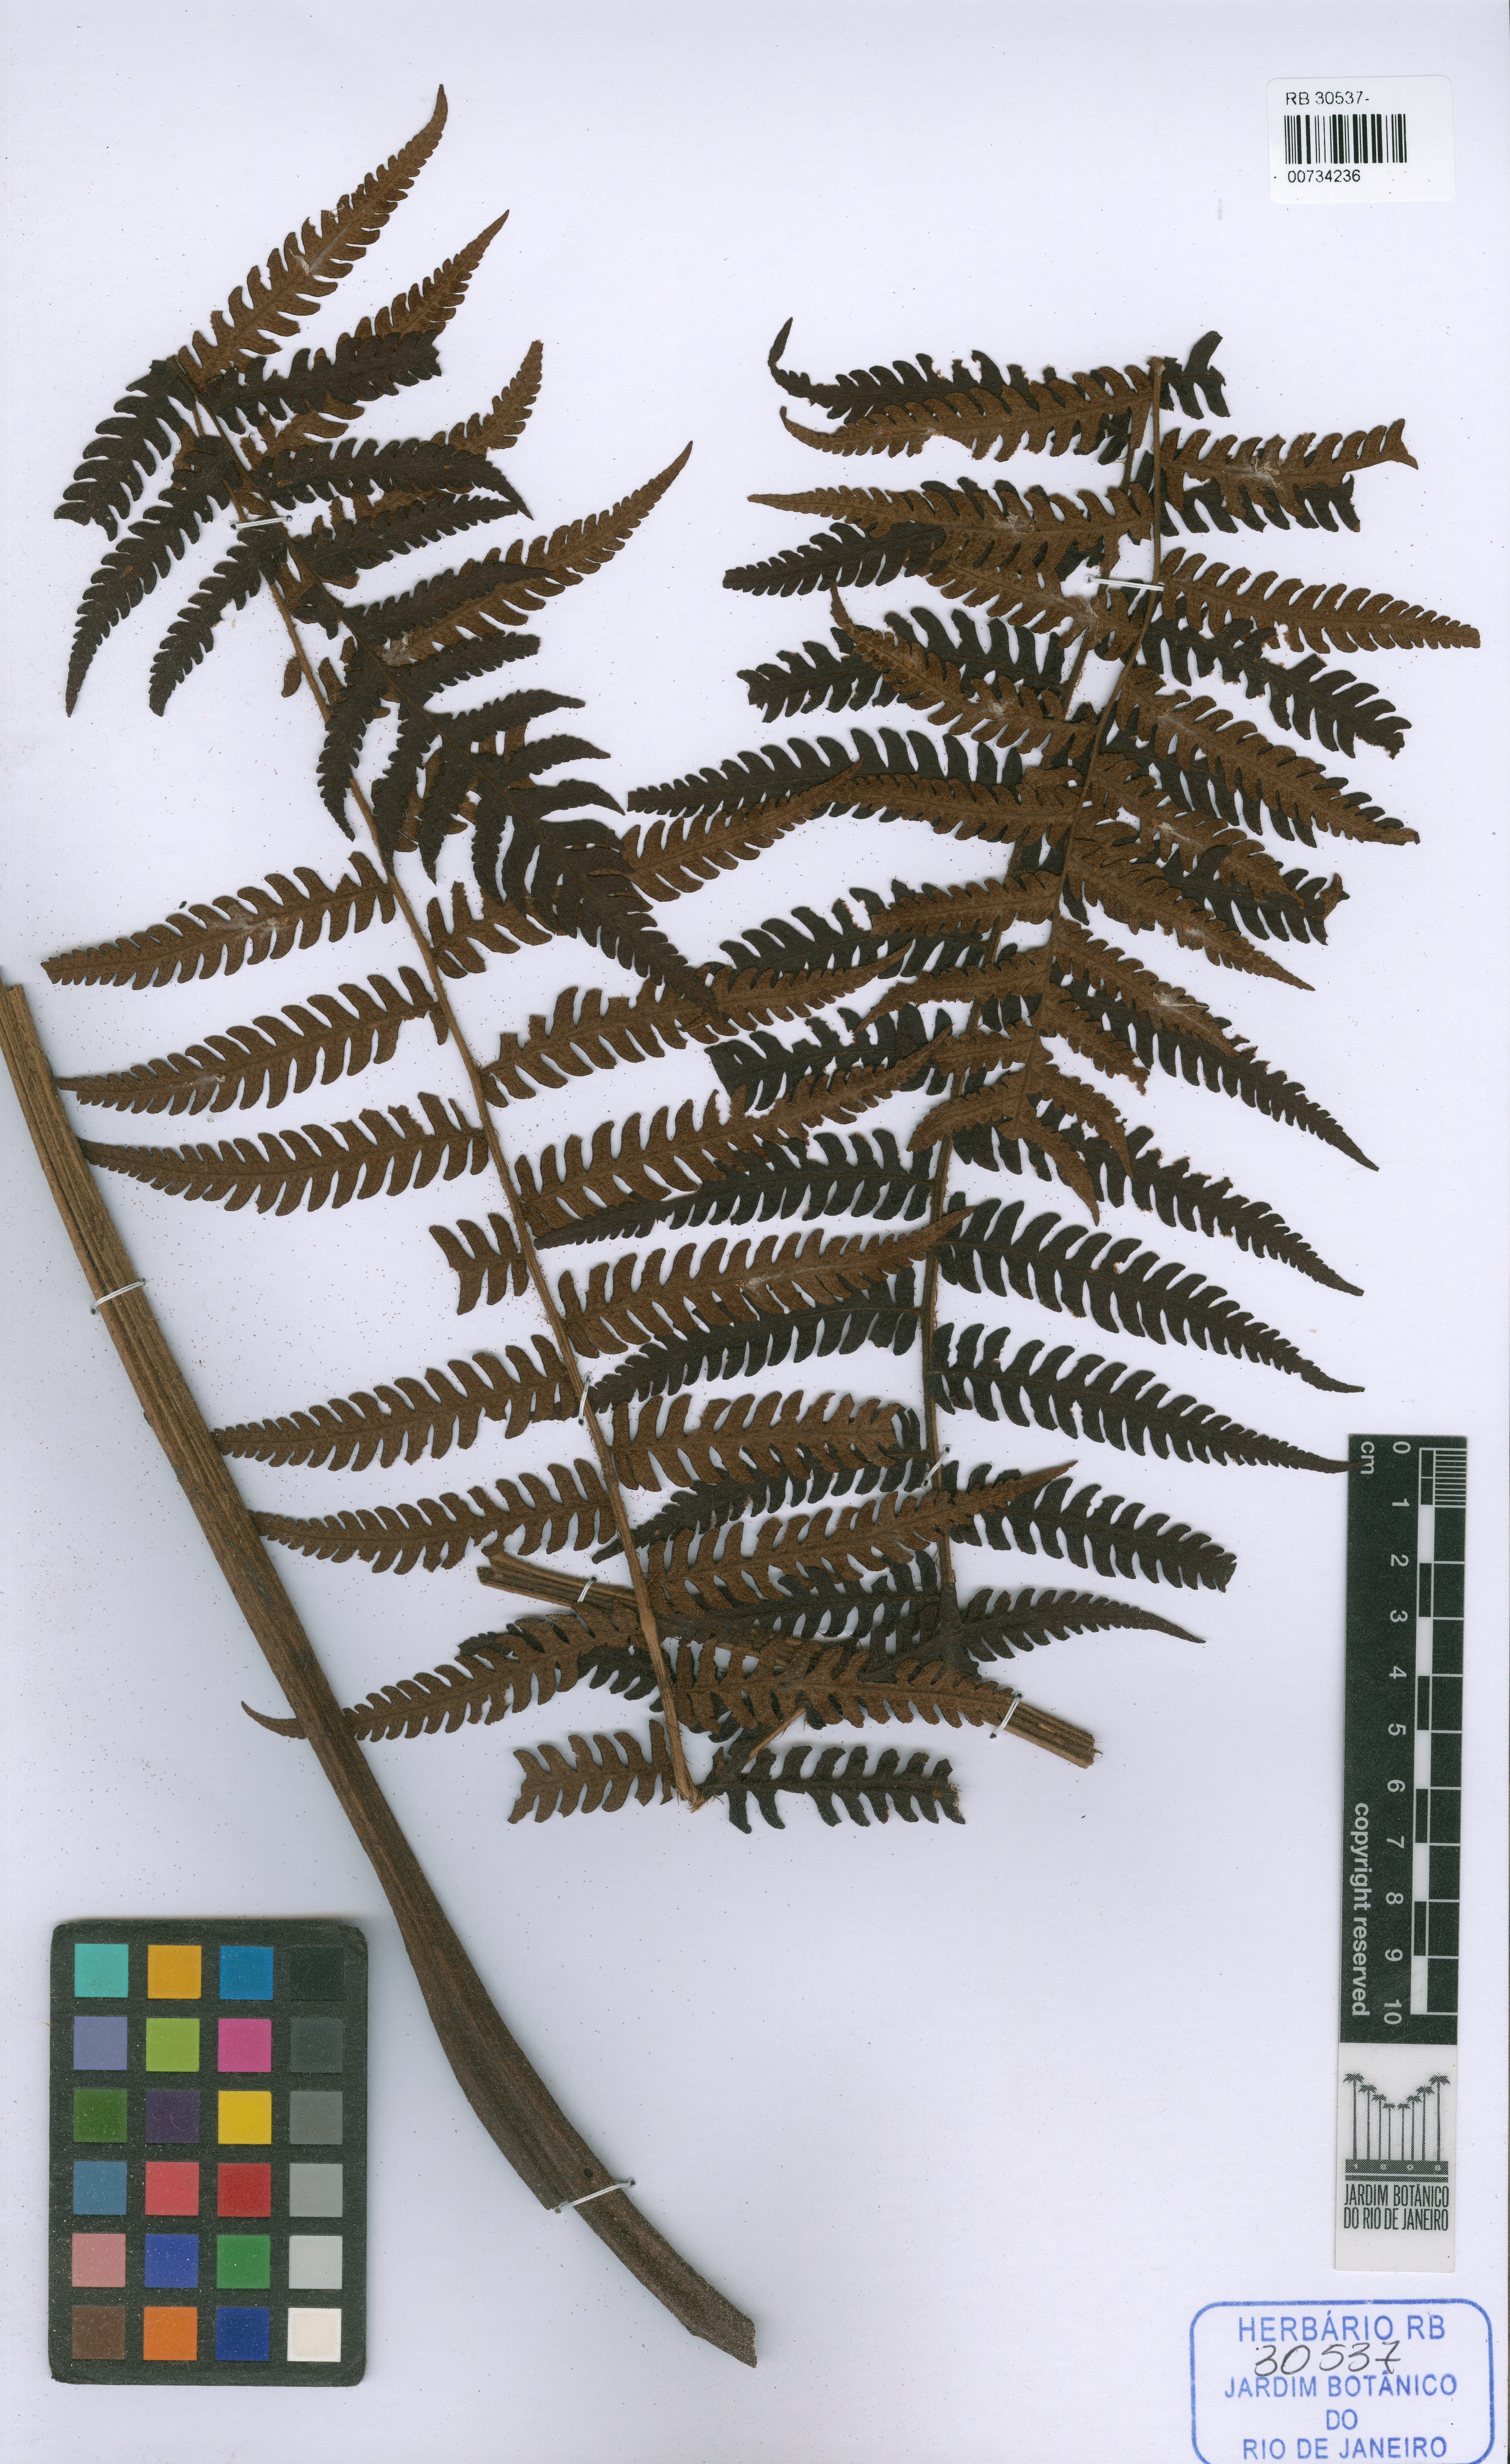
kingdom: Plantae
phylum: Tracheophyta
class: Polypodiopsida
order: Polypodiales
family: Dryopteridaceae
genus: Megalastrum
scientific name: Megalastrum retrorsum
